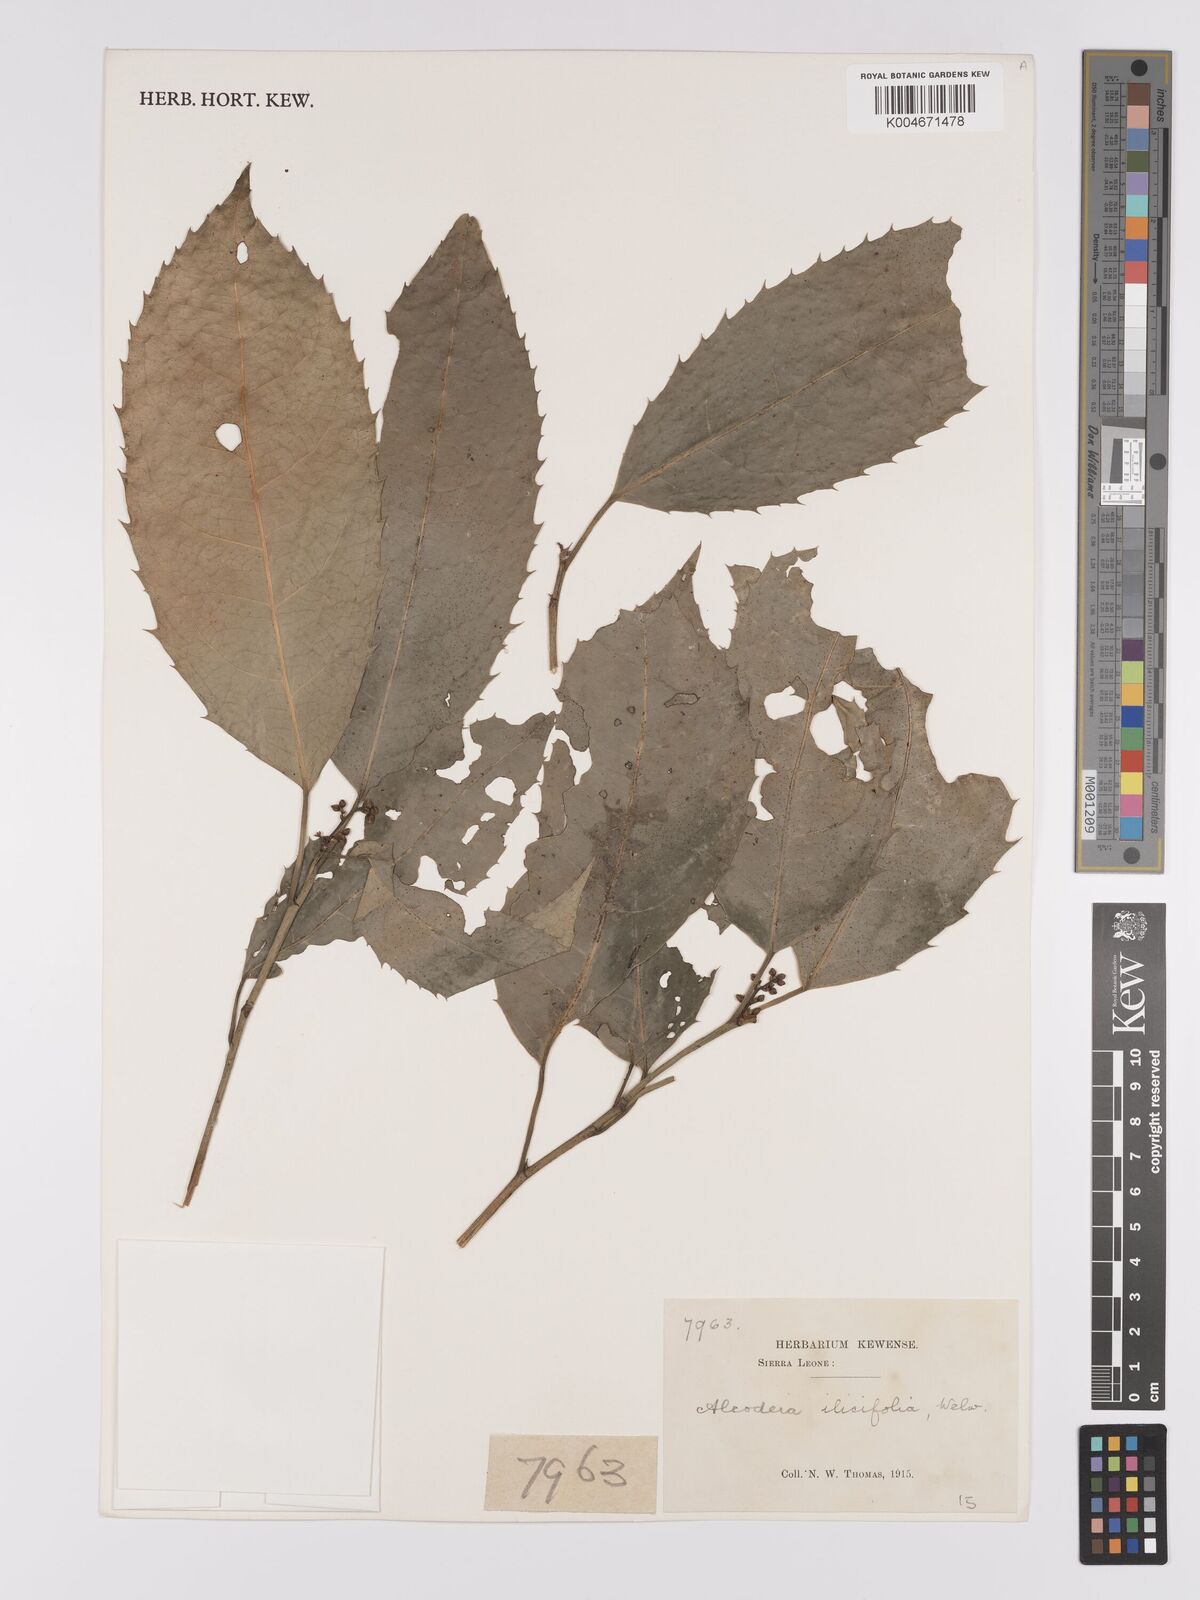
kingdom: Plantae
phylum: Tracheophyta
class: Magnoliopsida
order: Malpighiales
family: Violaceae
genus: Rinorea
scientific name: Rinorea ilicifolia
